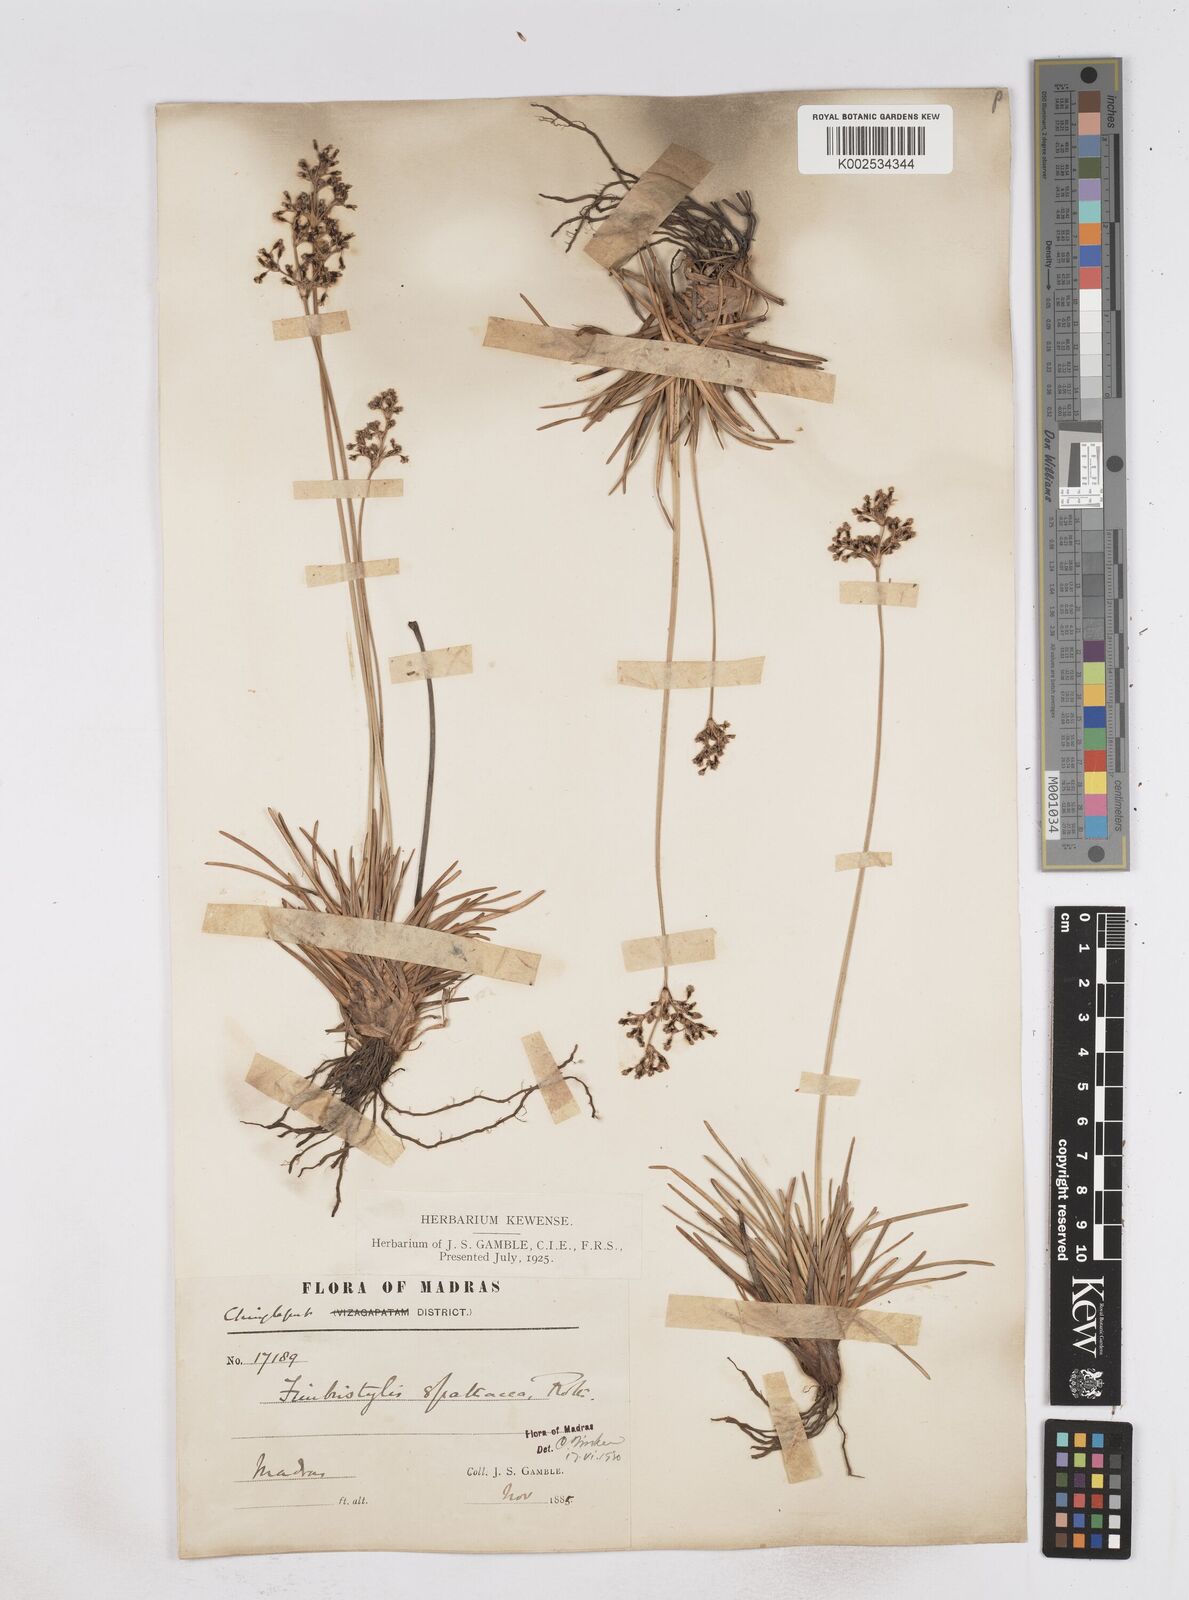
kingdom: Plantae
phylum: Tracheophyta
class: Liliopsida
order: Poales
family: Cyperaceae
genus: Fimbristylis
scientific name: Fimbristylis cymosa
